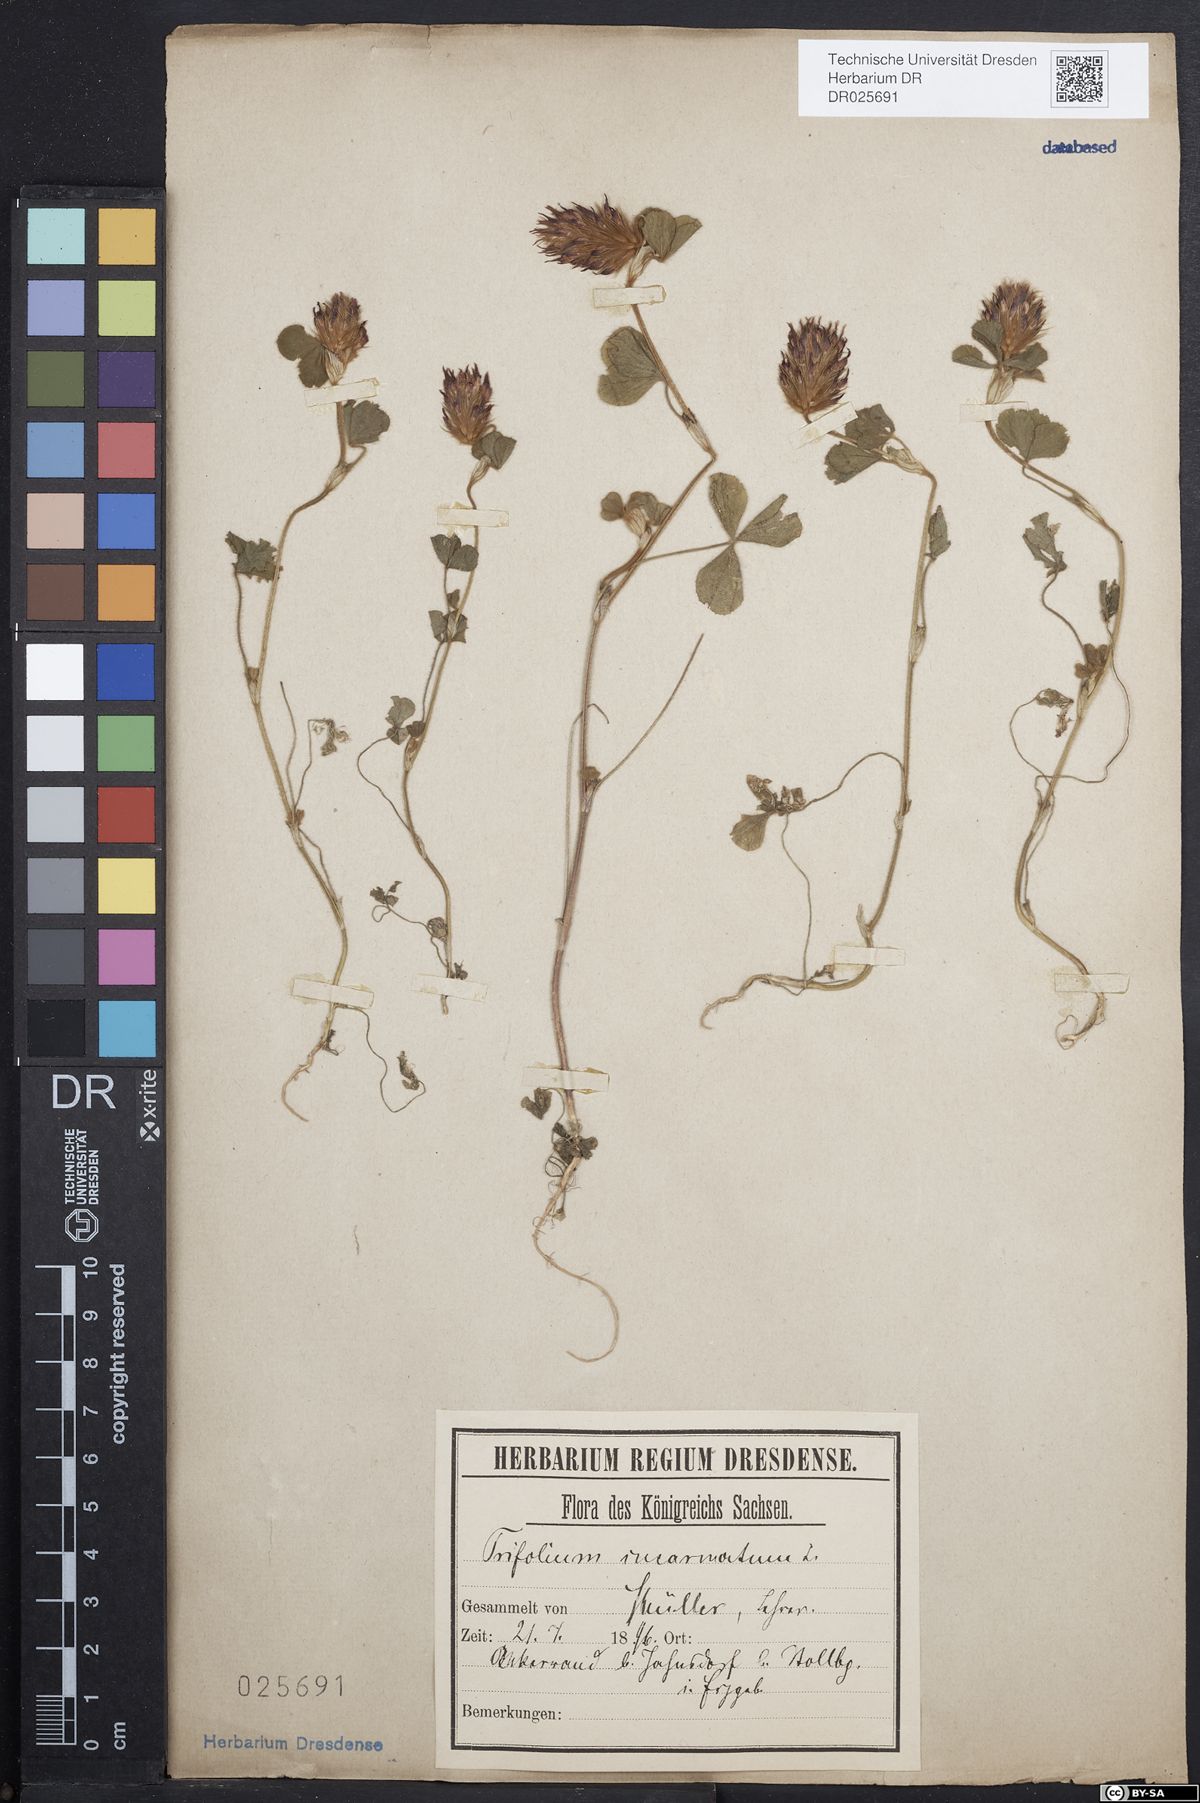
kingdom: Plantae
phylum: Tracheophyta
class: Magnoliopsida
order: Fabales
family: Fabaceae
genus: Trifolium
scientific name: Trifolium incarnatum
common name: Crimson clover
